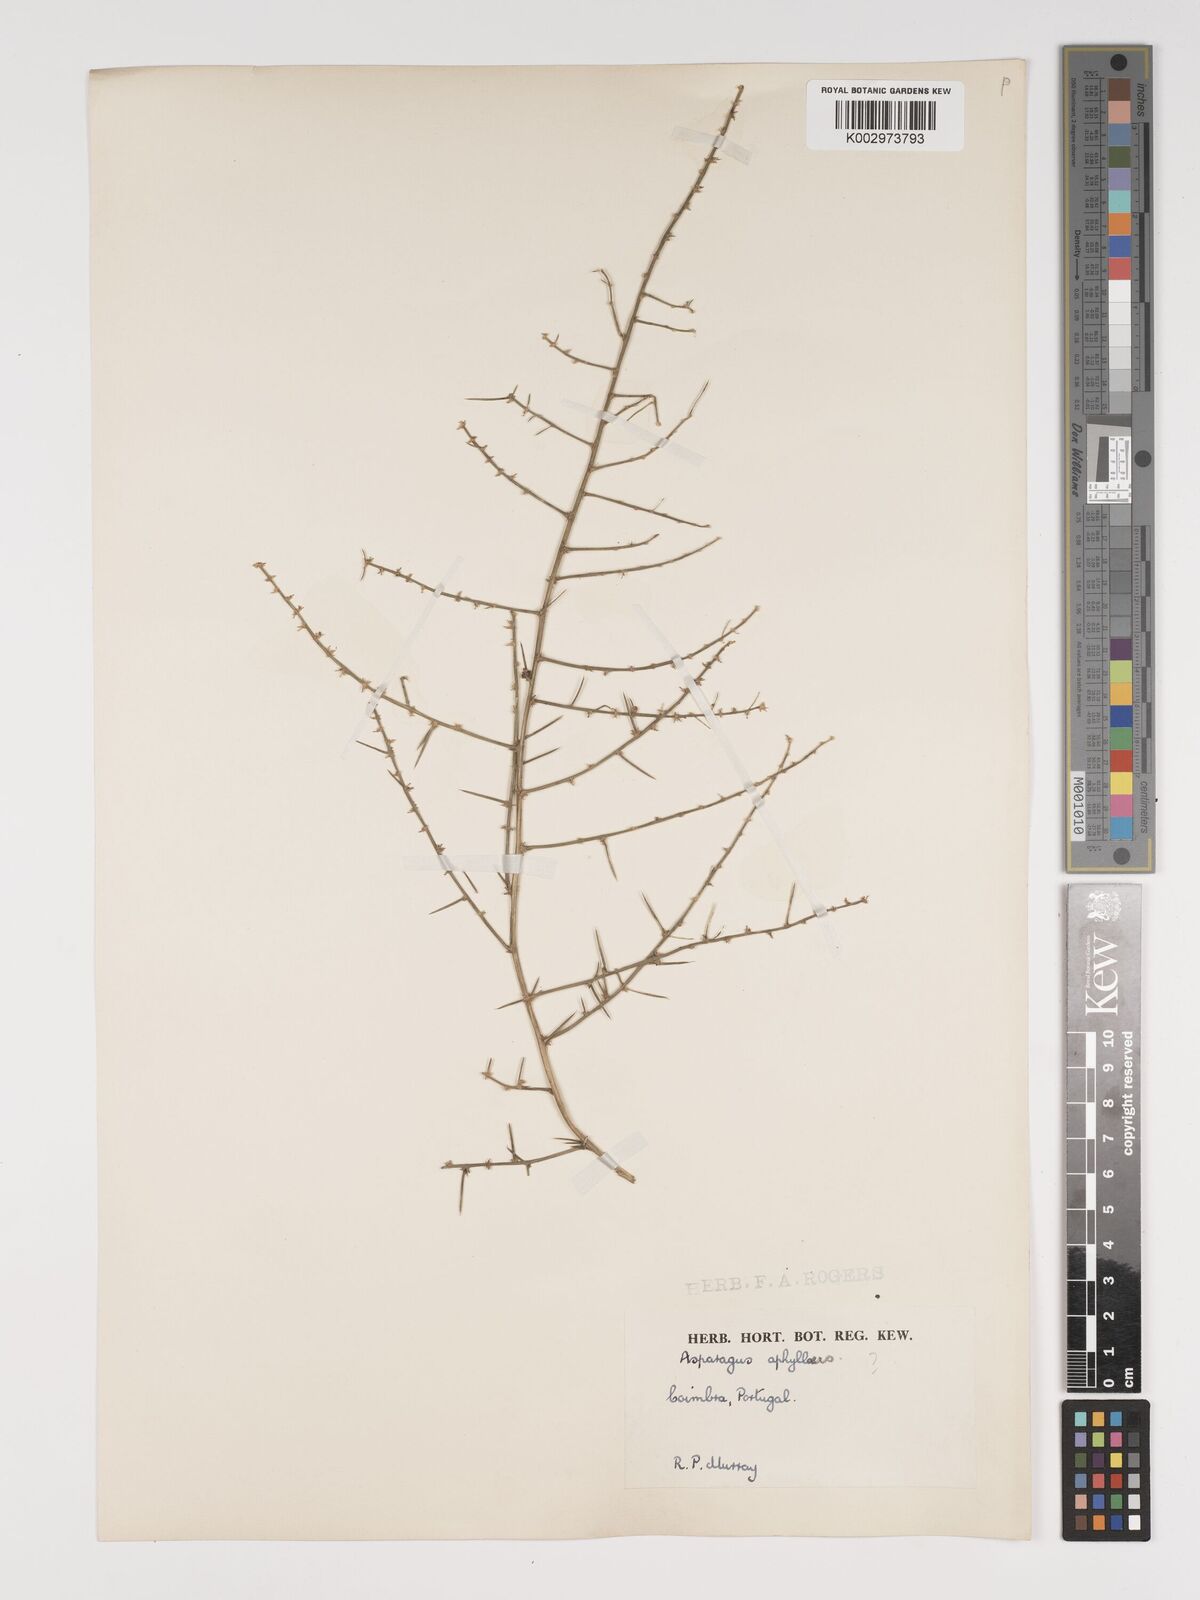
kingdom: Plantae
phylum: Tracheophyta
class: Liliopsida
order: Asparagales
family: Asparagaceae
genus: Asparagus
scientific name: Asparagus aphyllus
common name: Mediterranean asparagus
